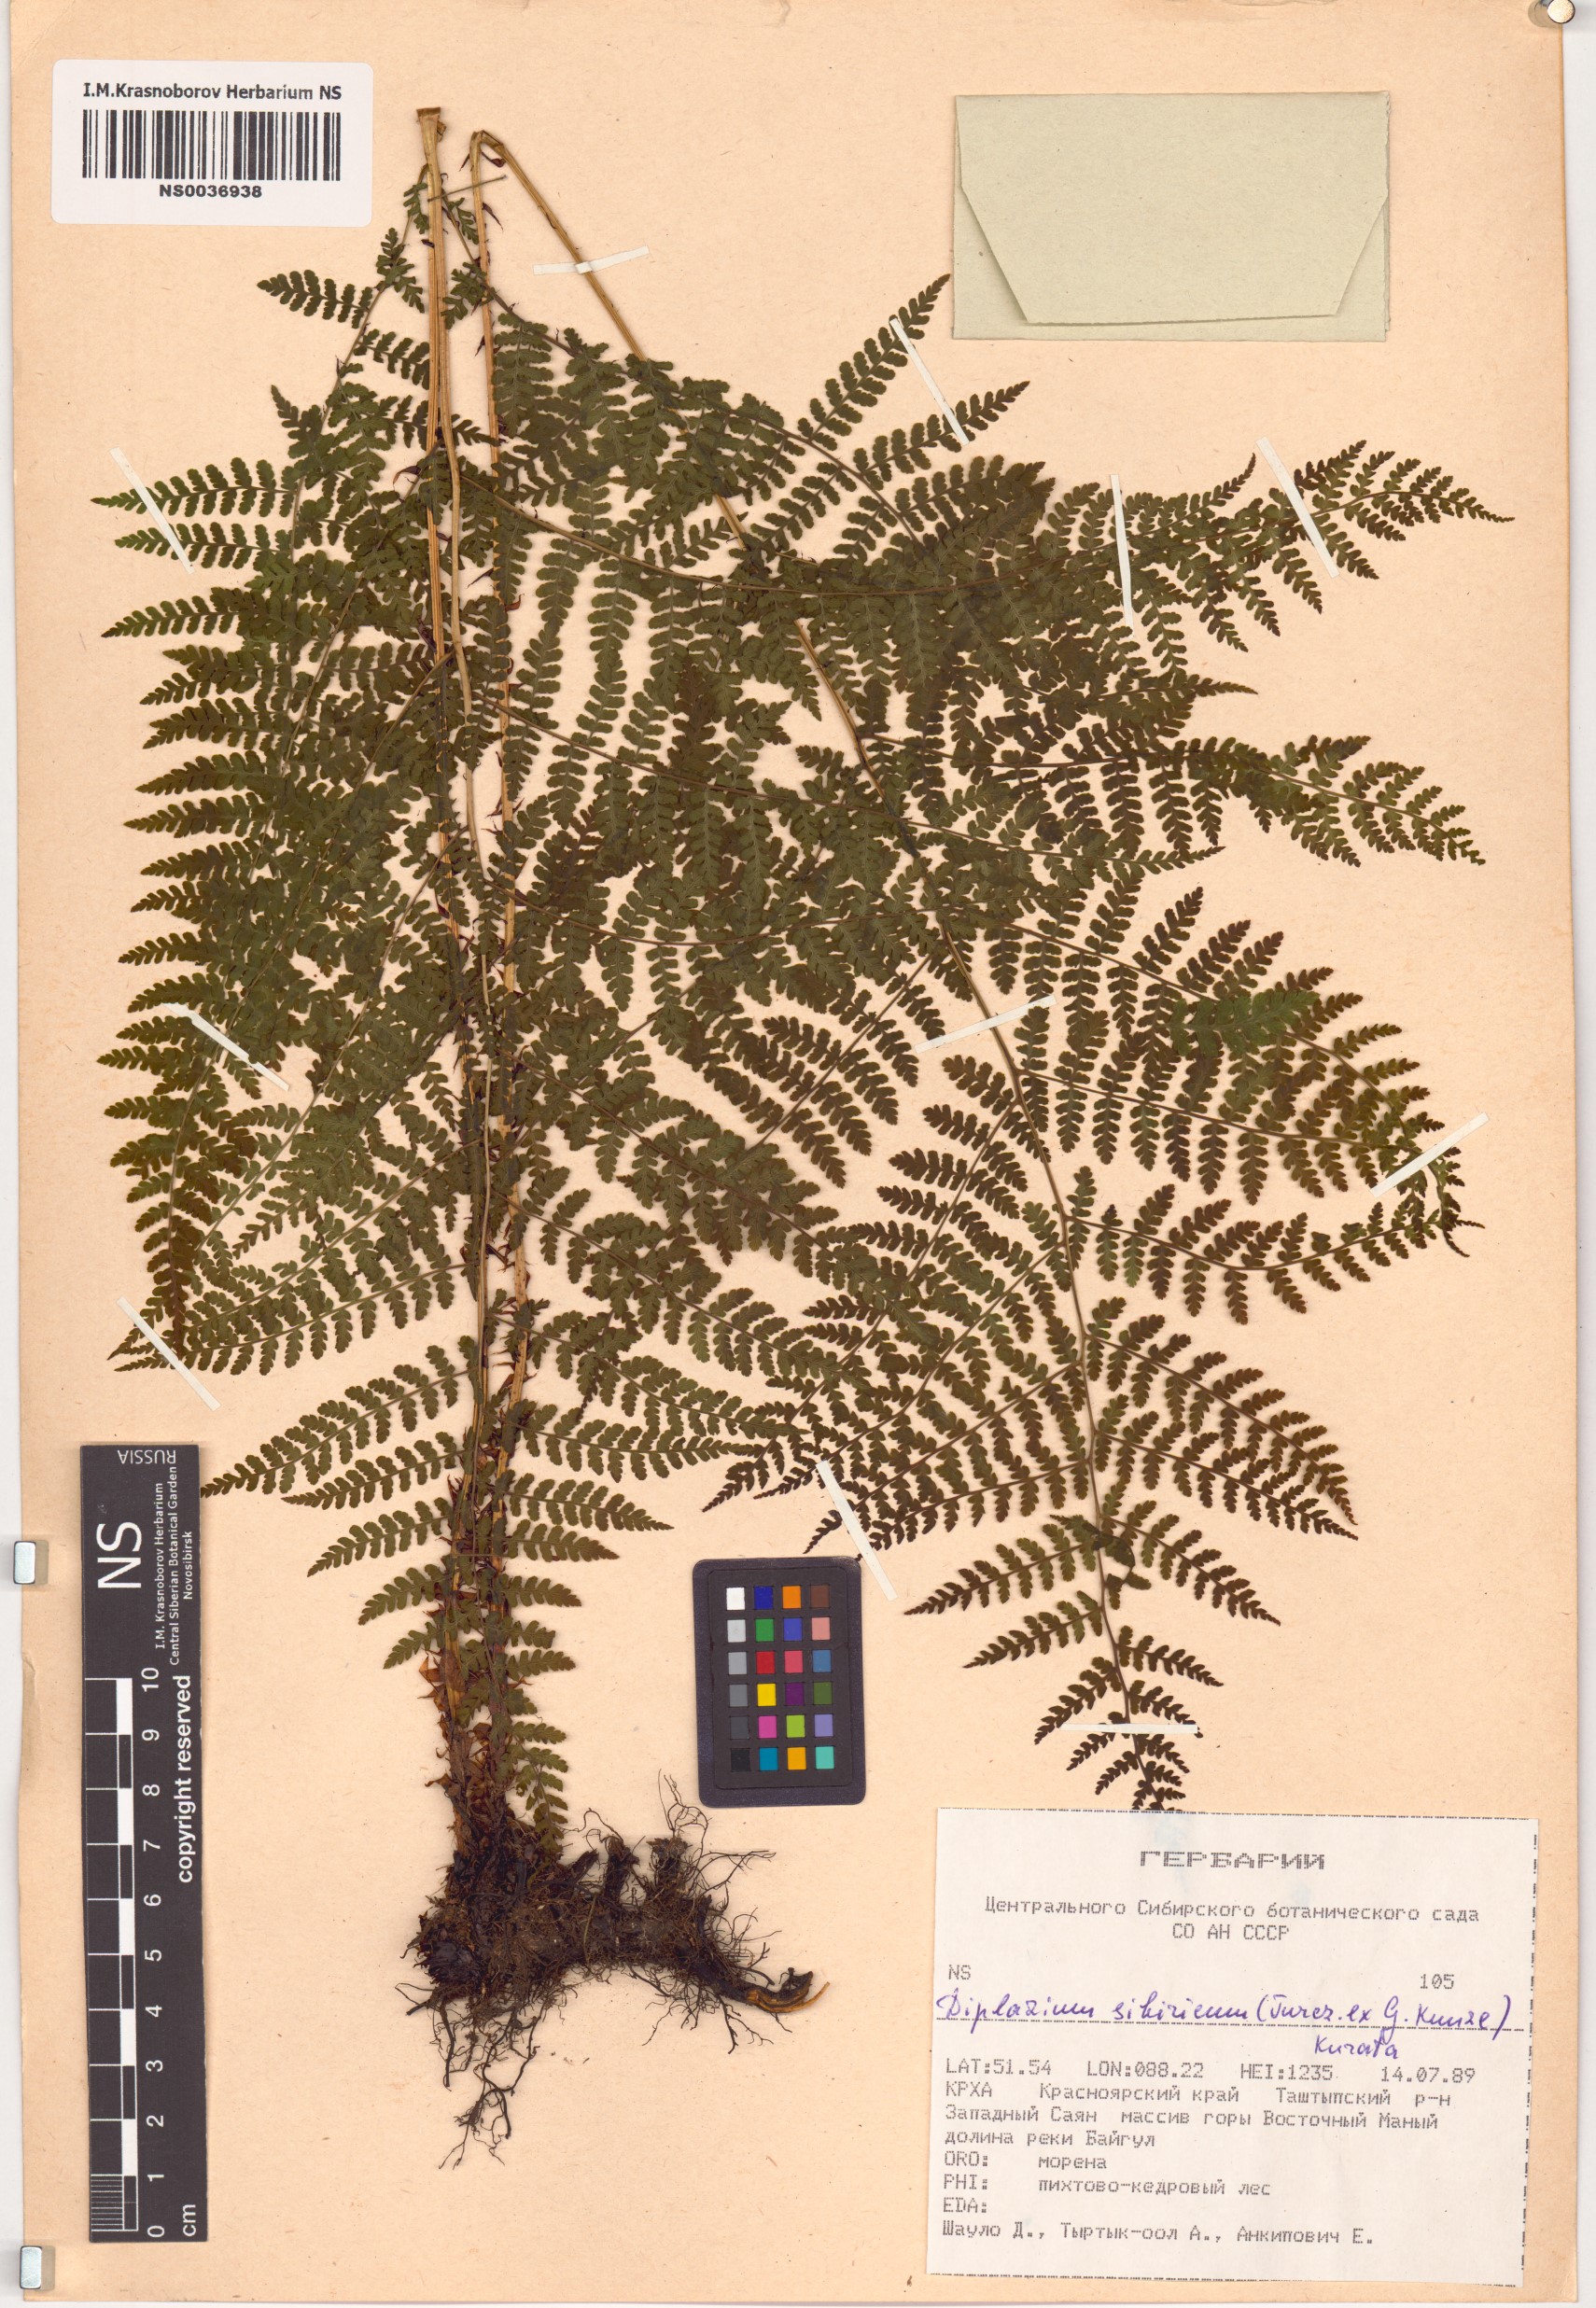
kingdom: Plantae
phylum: Tracheophyta
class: Polypodiopsida
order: Polypodiales
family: Athyriaceae
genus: Diplazium
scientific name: Diplazium sibiricum
